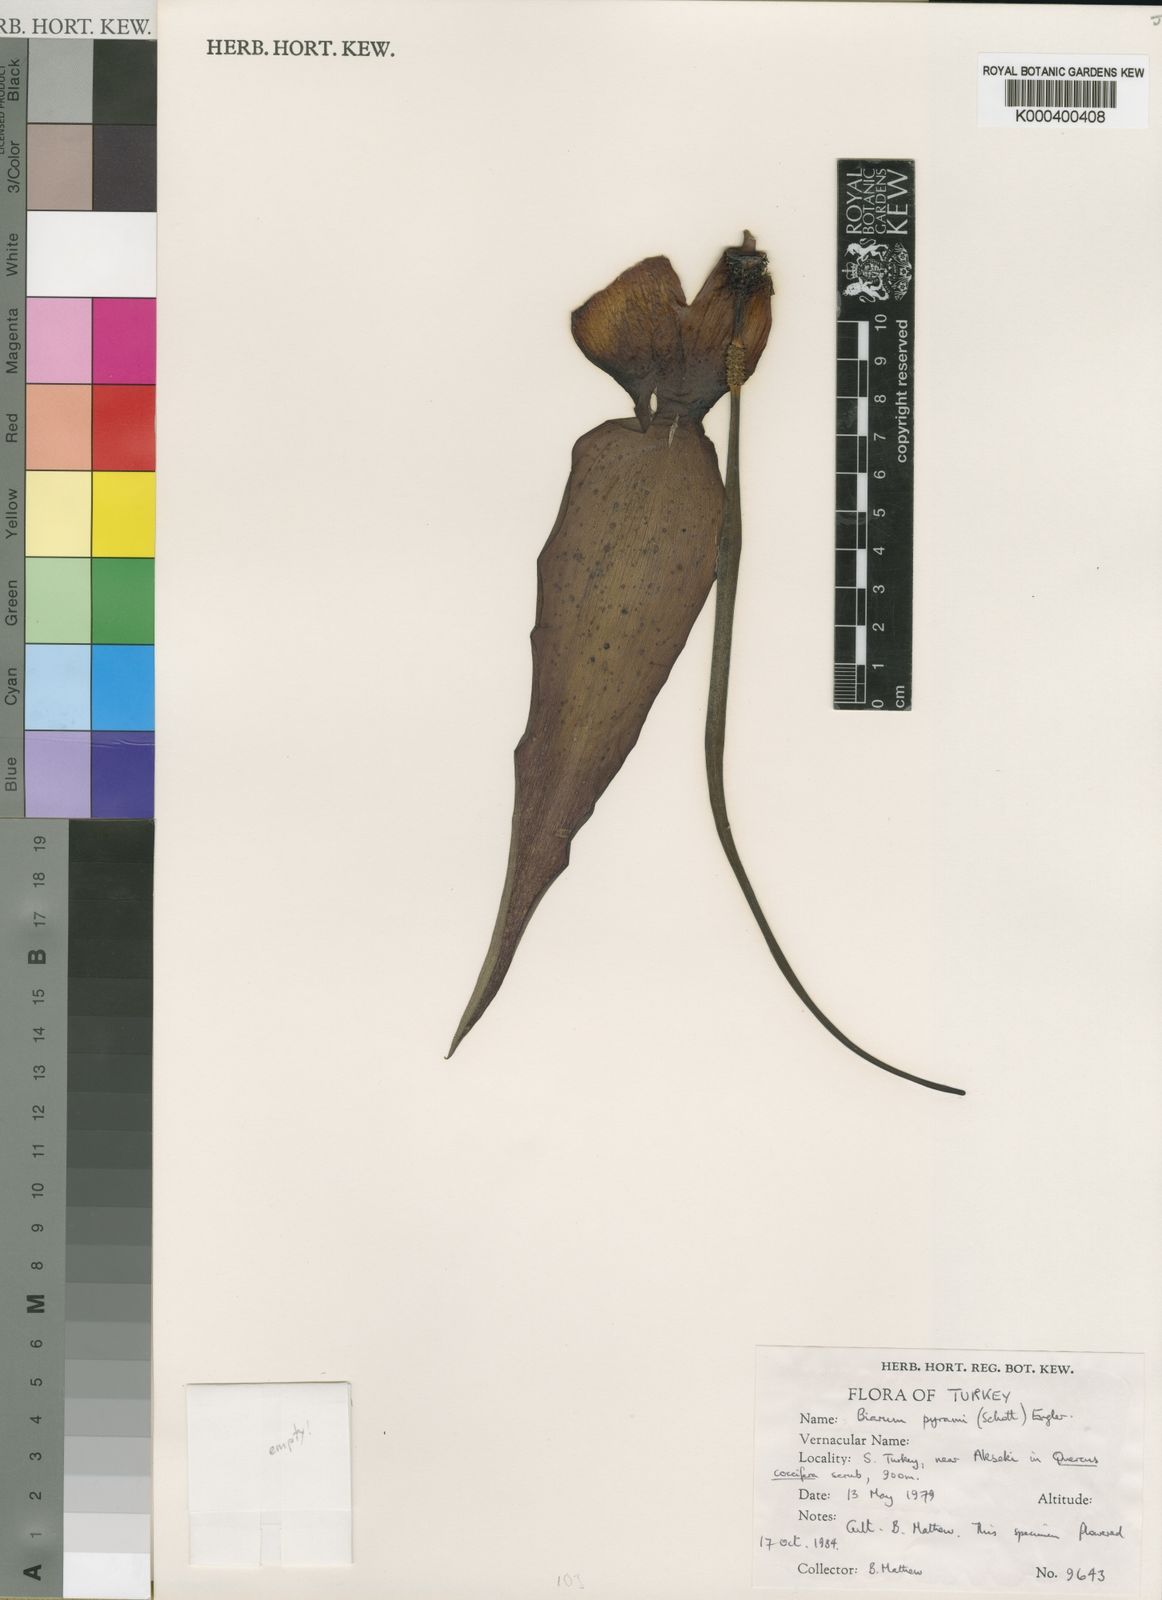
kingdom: Plantae
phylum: Tracheophyta
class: Liliopsida
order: Alismatales
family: Araceae
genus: Biarum
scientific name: Biarum pyrami
